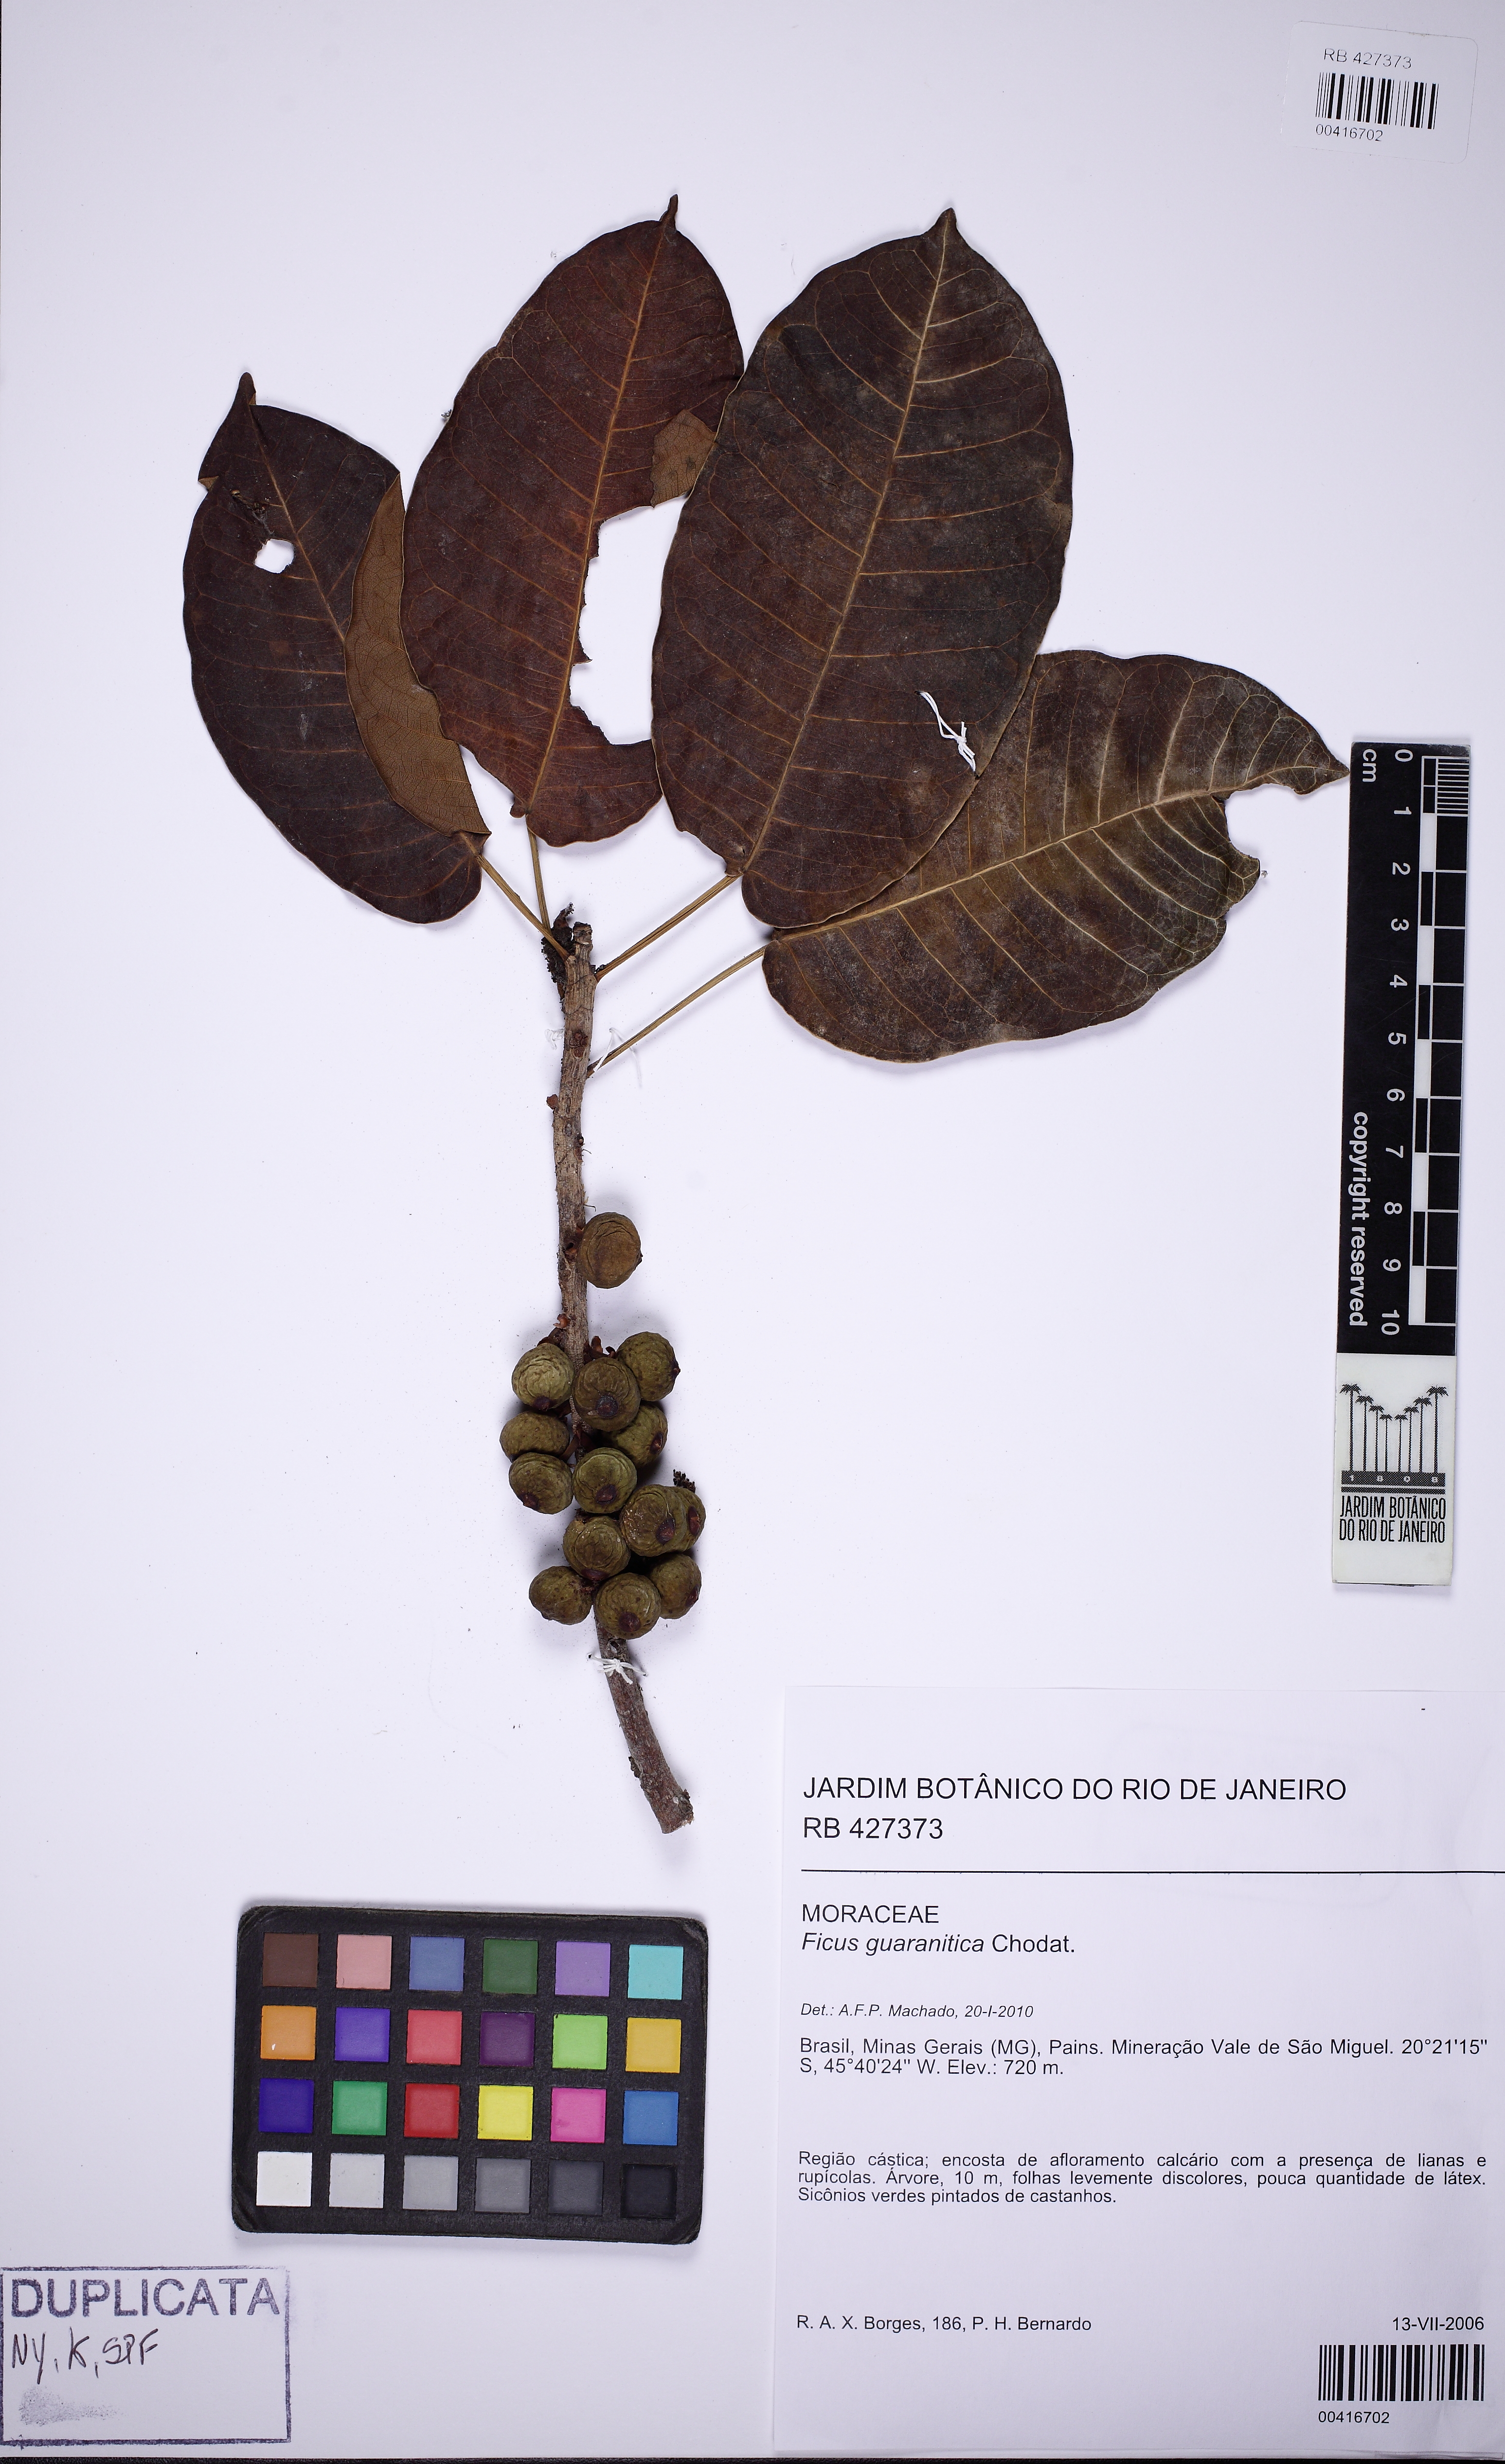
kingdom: Plantae
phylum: Tracheophyta
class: Magnoliopsida
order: Rosales
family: Moraceae
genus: Ficus
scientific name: Ficus guaranitica
